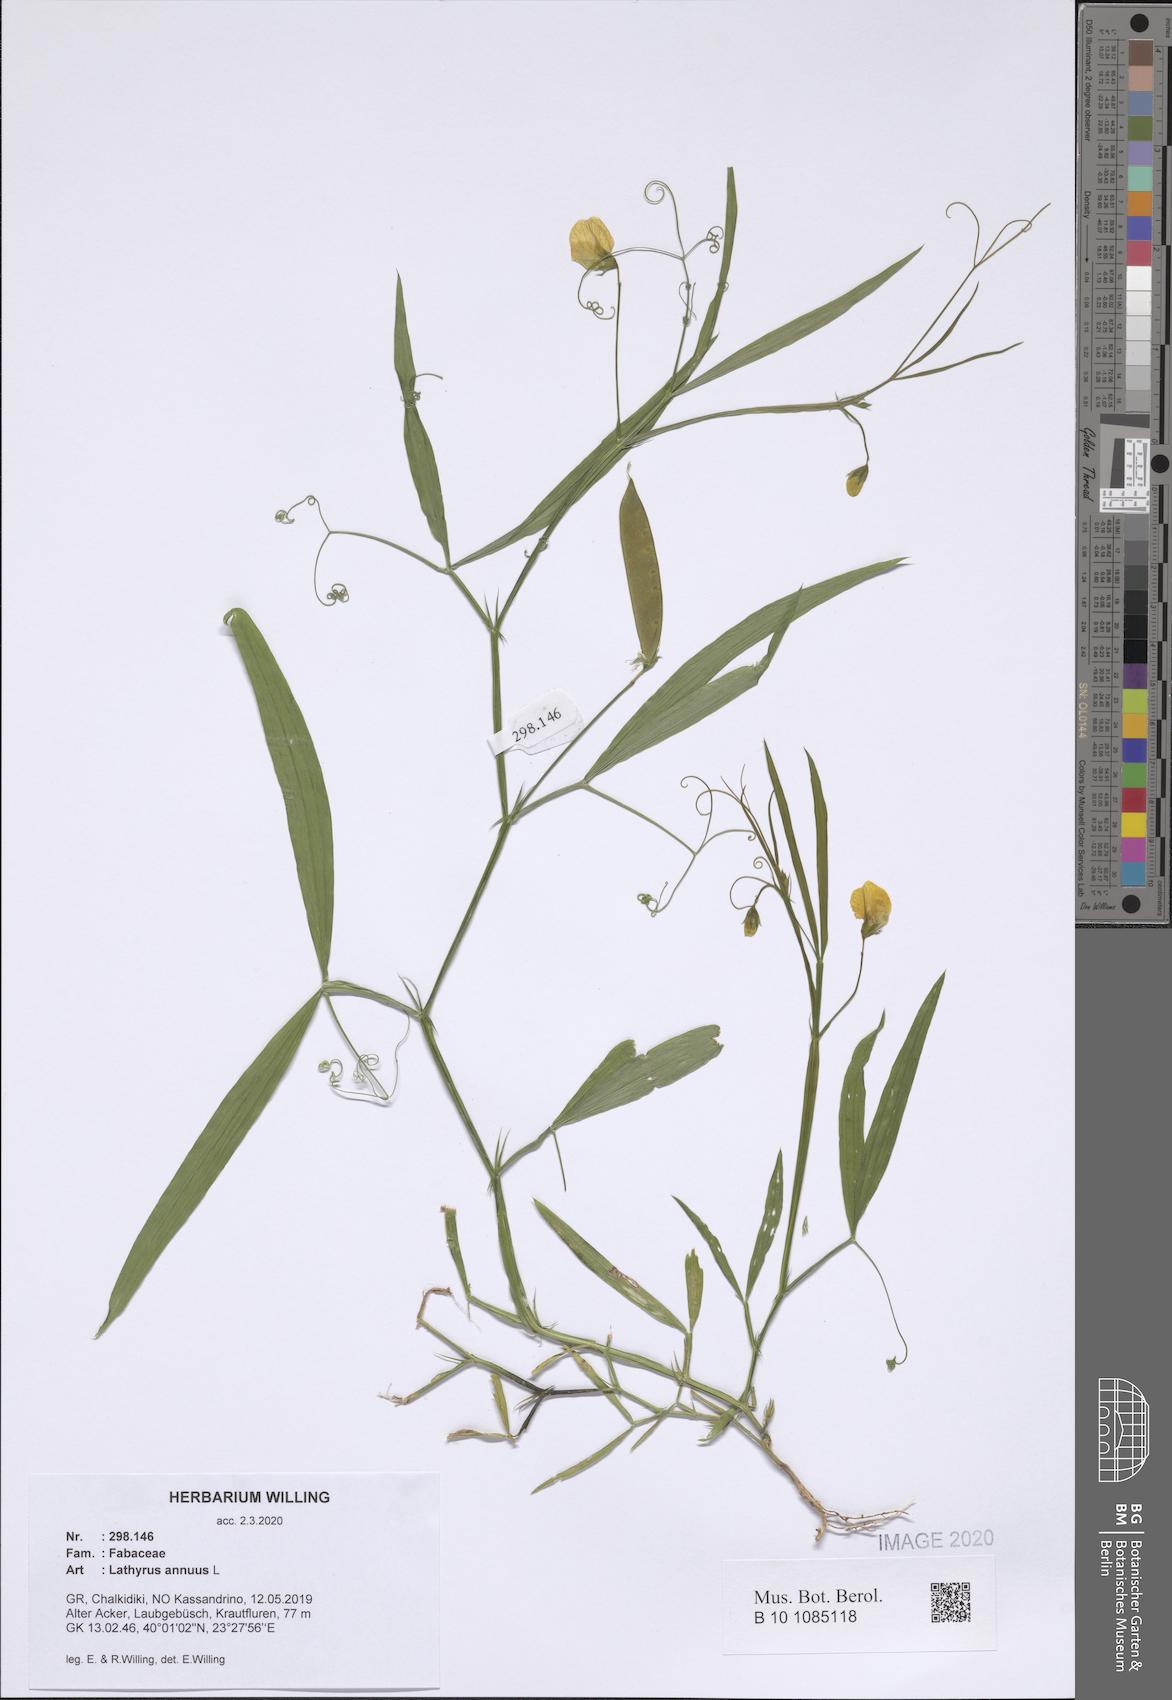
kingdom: Plantae
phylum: Tracheophyta
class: Magnoliopsida
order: Fabales
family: Fabaceae
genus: Lathyrus
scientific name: Lathyrus annuus
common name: Fodder pea
